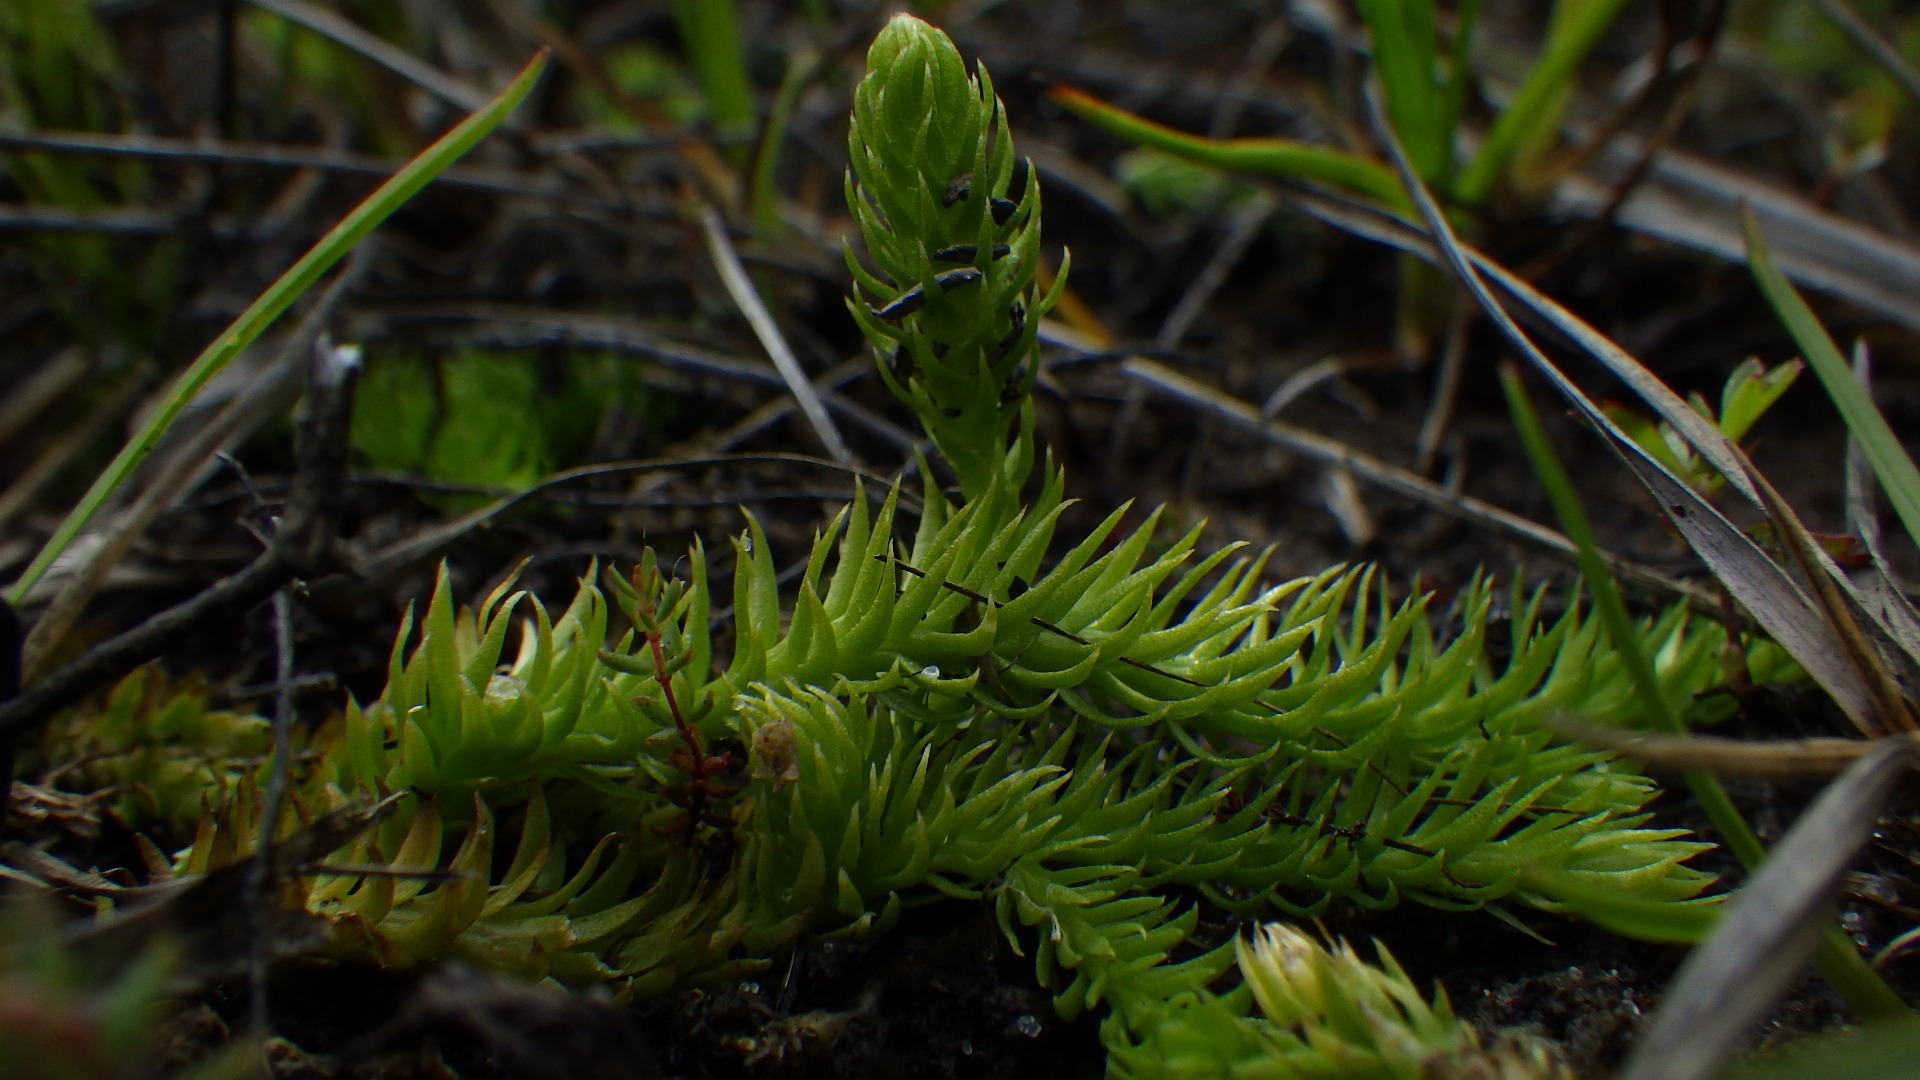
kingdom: Plantae
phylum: Tracheophyta
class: Lycopodiopsida
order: Lycopodiales
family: Lycopodiaceae
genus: Lycopodiella
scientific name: Lycopodiella inundata
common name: Liden ulvefod
